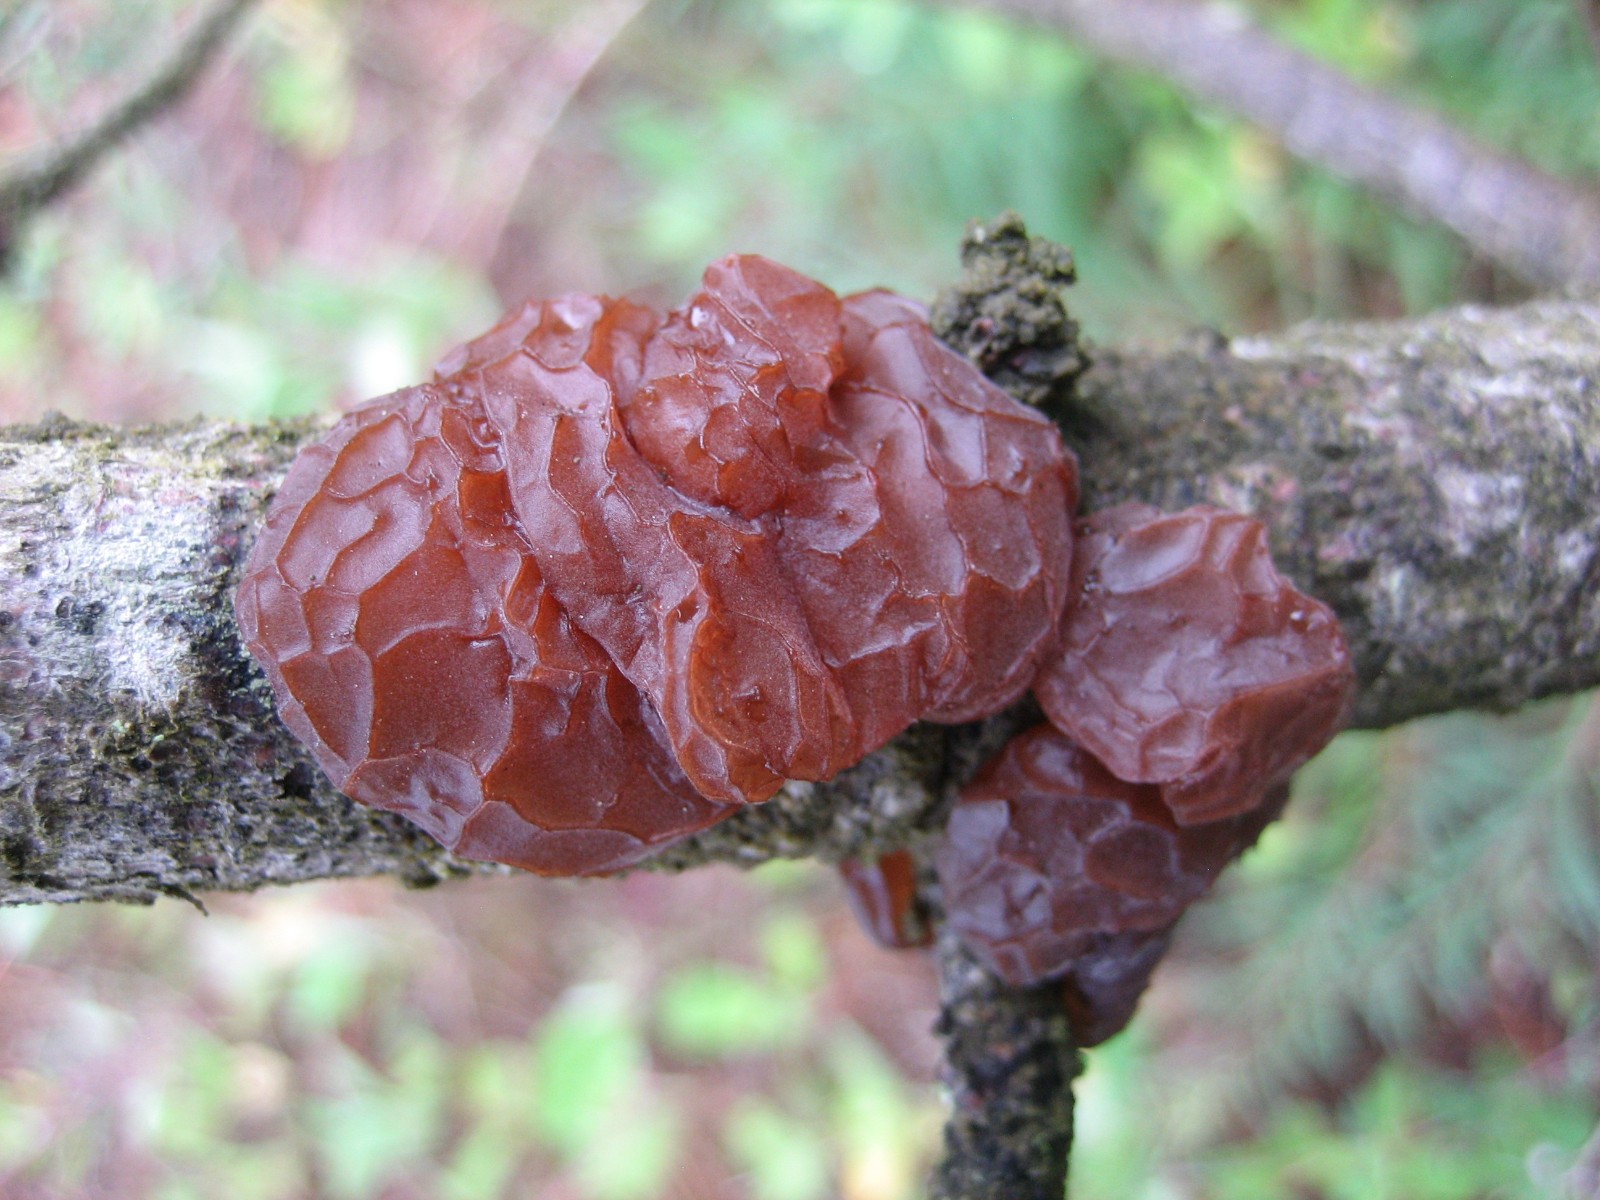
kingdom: Fungi
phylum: Basidiomycota
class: Agaricomycetes
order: Auriculariales
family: Auriculariaceae
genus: Exidia
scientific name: Exidia saccharina
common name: kandis-bævretop
